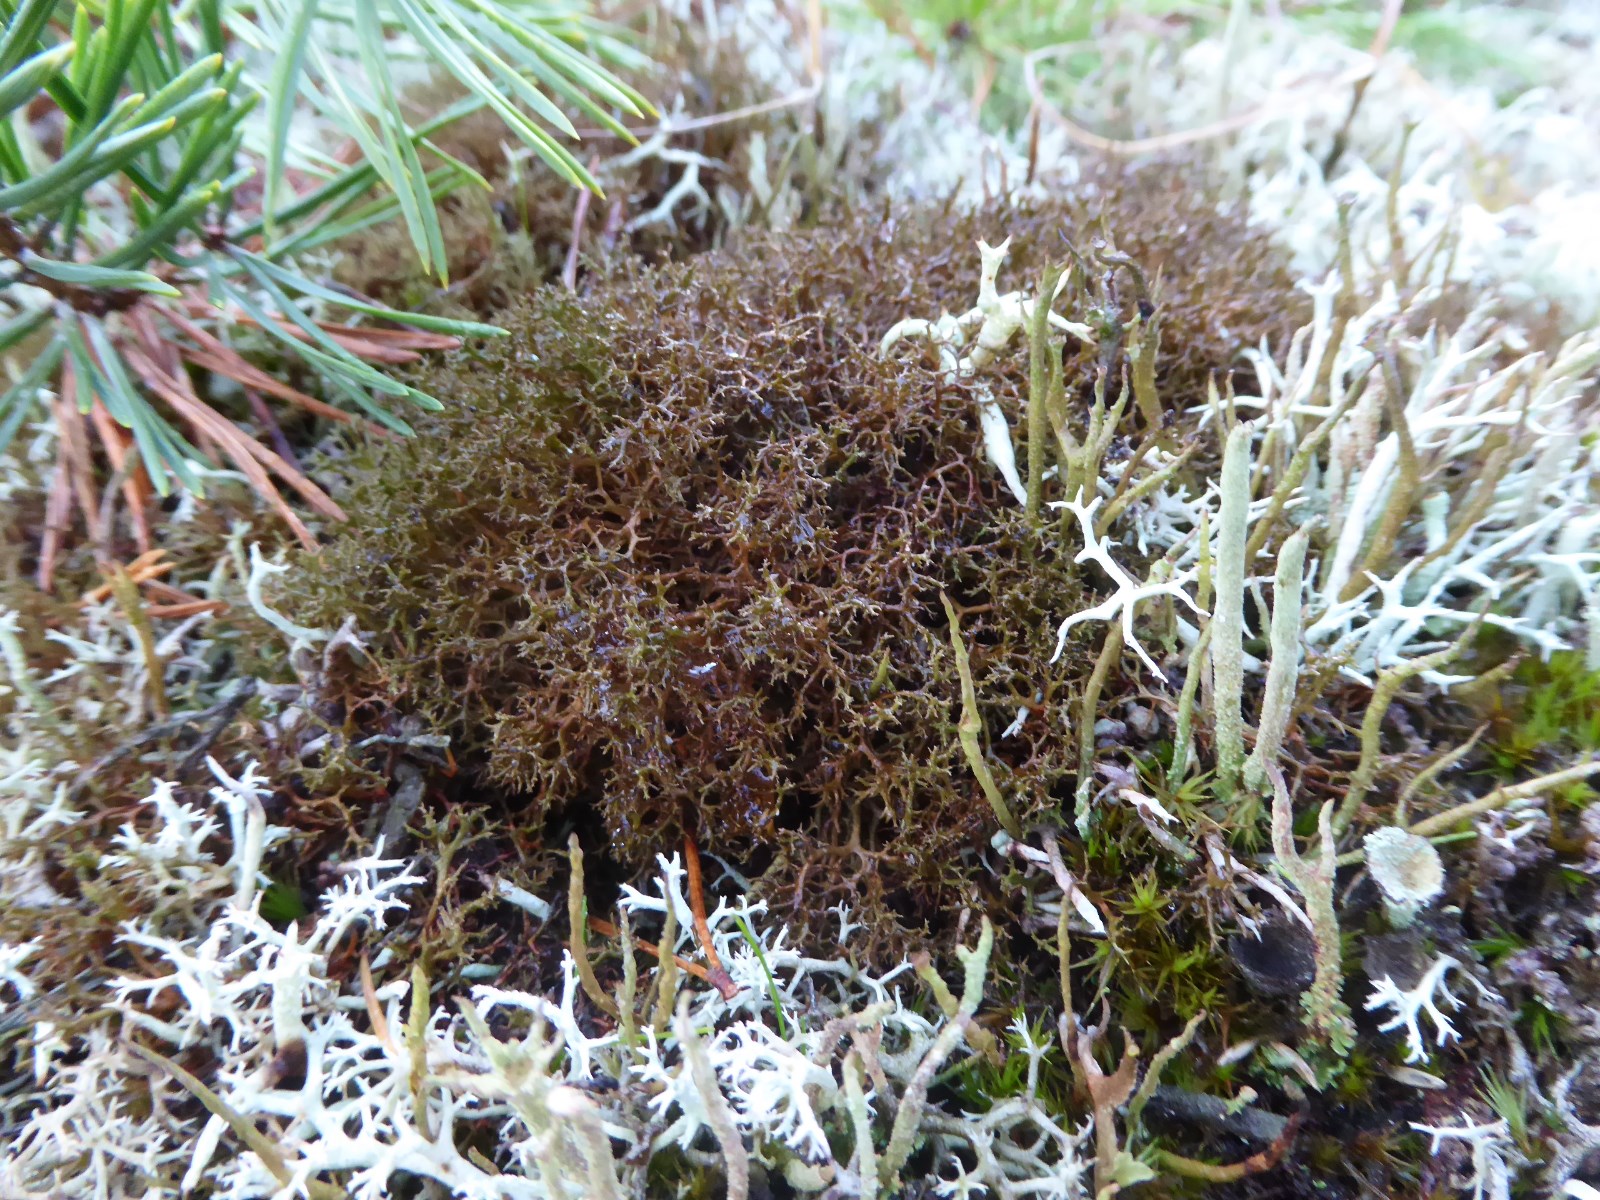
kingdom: Fungi
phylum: Ascomycota
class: Lecanoromycetes
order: Lecanorales
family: Parmeliaceae
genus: Cetraria
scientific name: Cetraria muricata
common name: tue-tjørnelav
